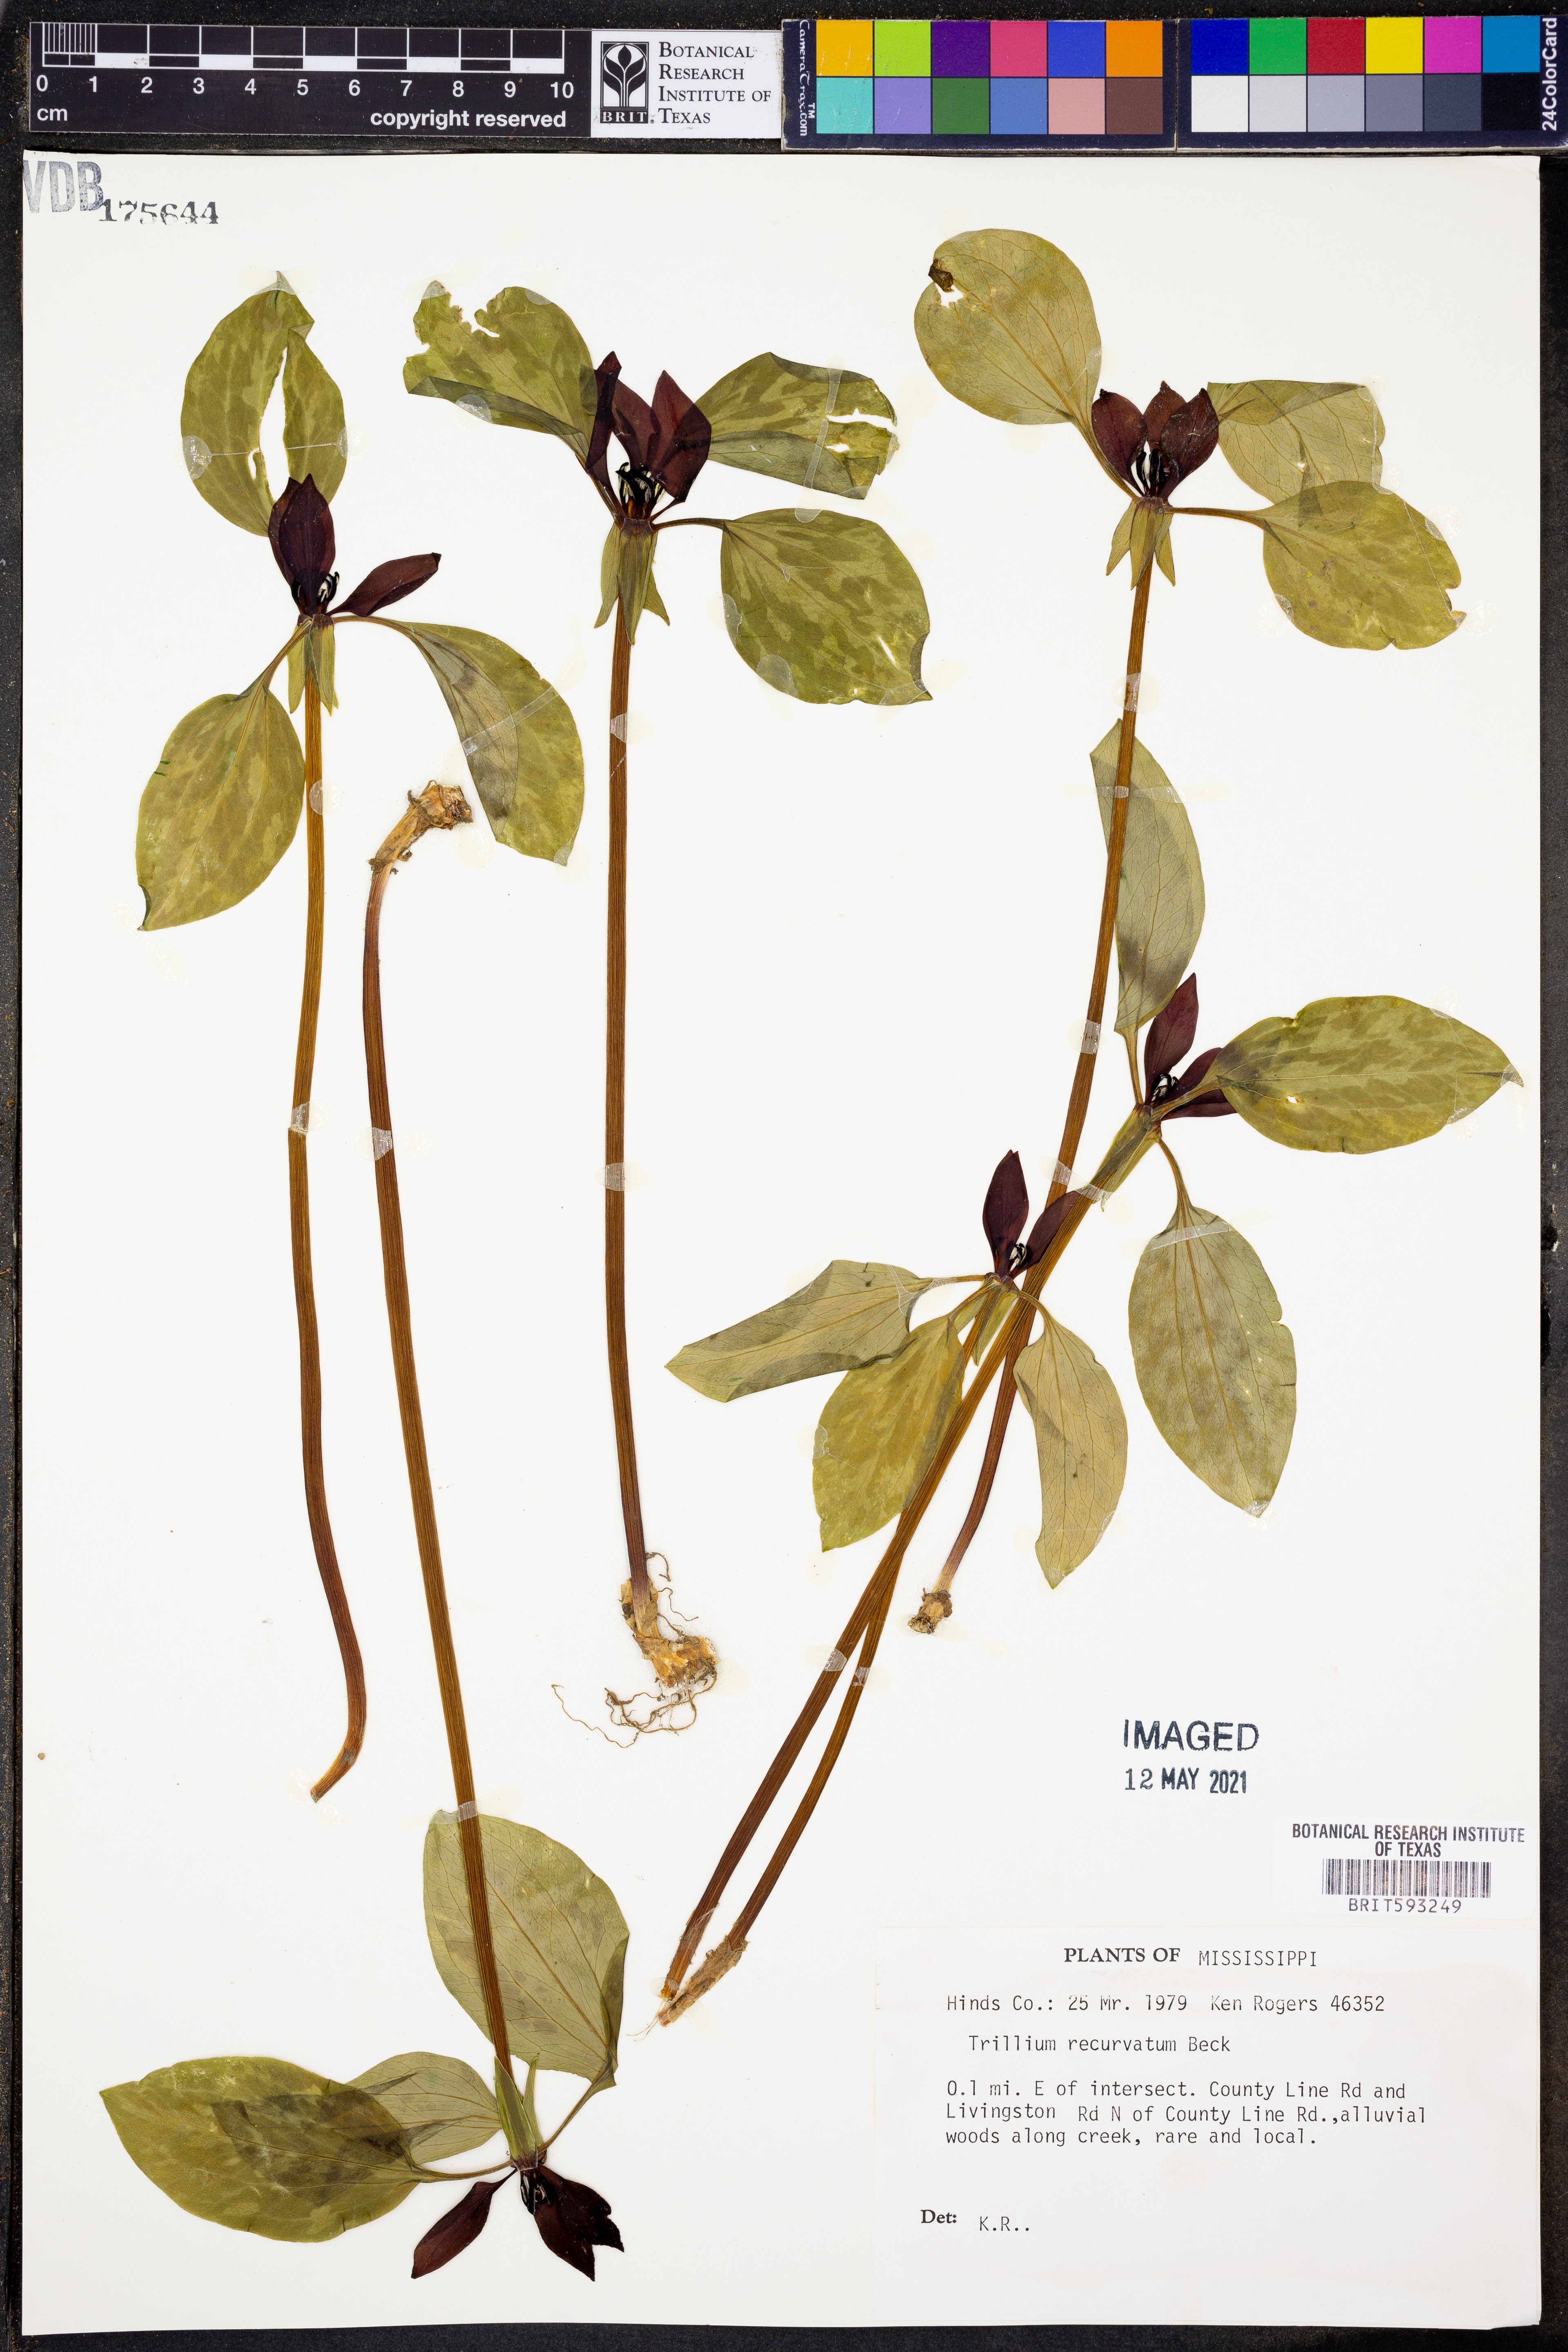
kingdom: Plantae
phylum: Tracheophyta
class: Liliopsida
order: Liliales
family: Melanthiaceae
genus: Trillium
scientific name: Trillium recurvatum
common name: Bloody butcher
